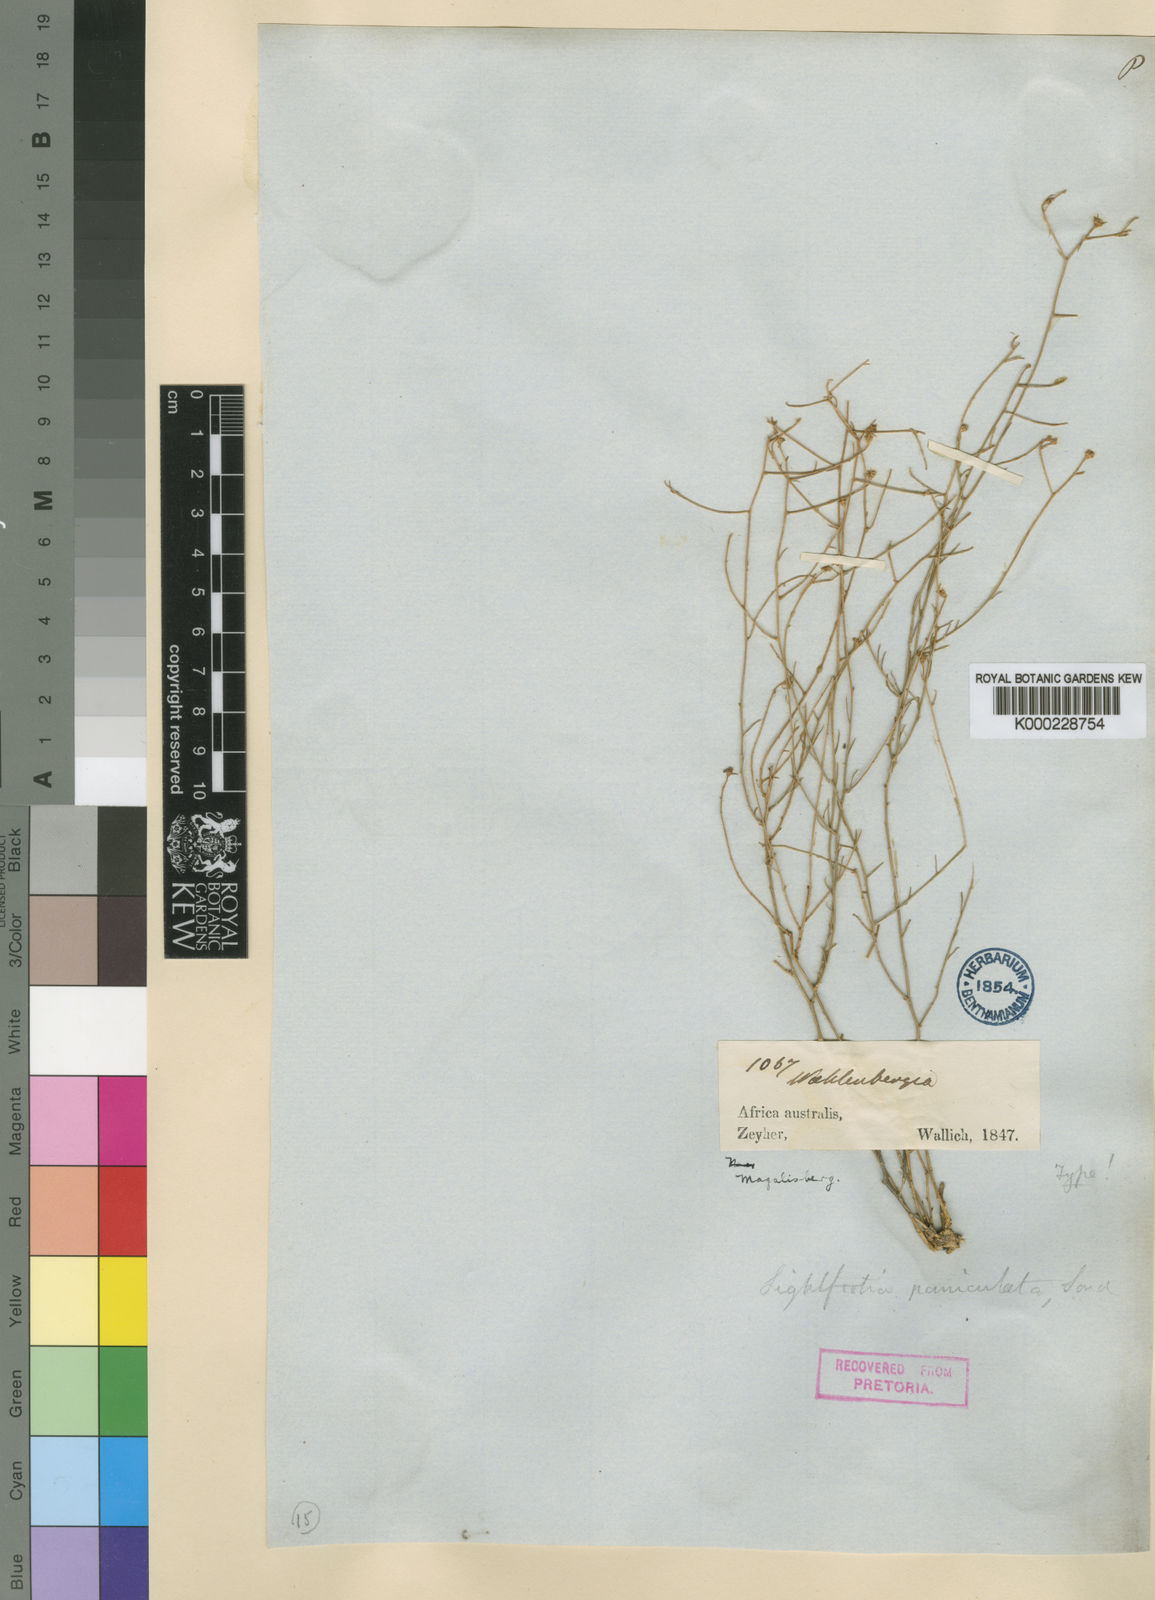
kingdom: Plantae
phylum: Tracheophyta
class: Magnoliopsida
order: Asterales
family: Campanulaceae
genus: Wahlenbergia
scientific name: Wahlenbergia magaliesbergensis
